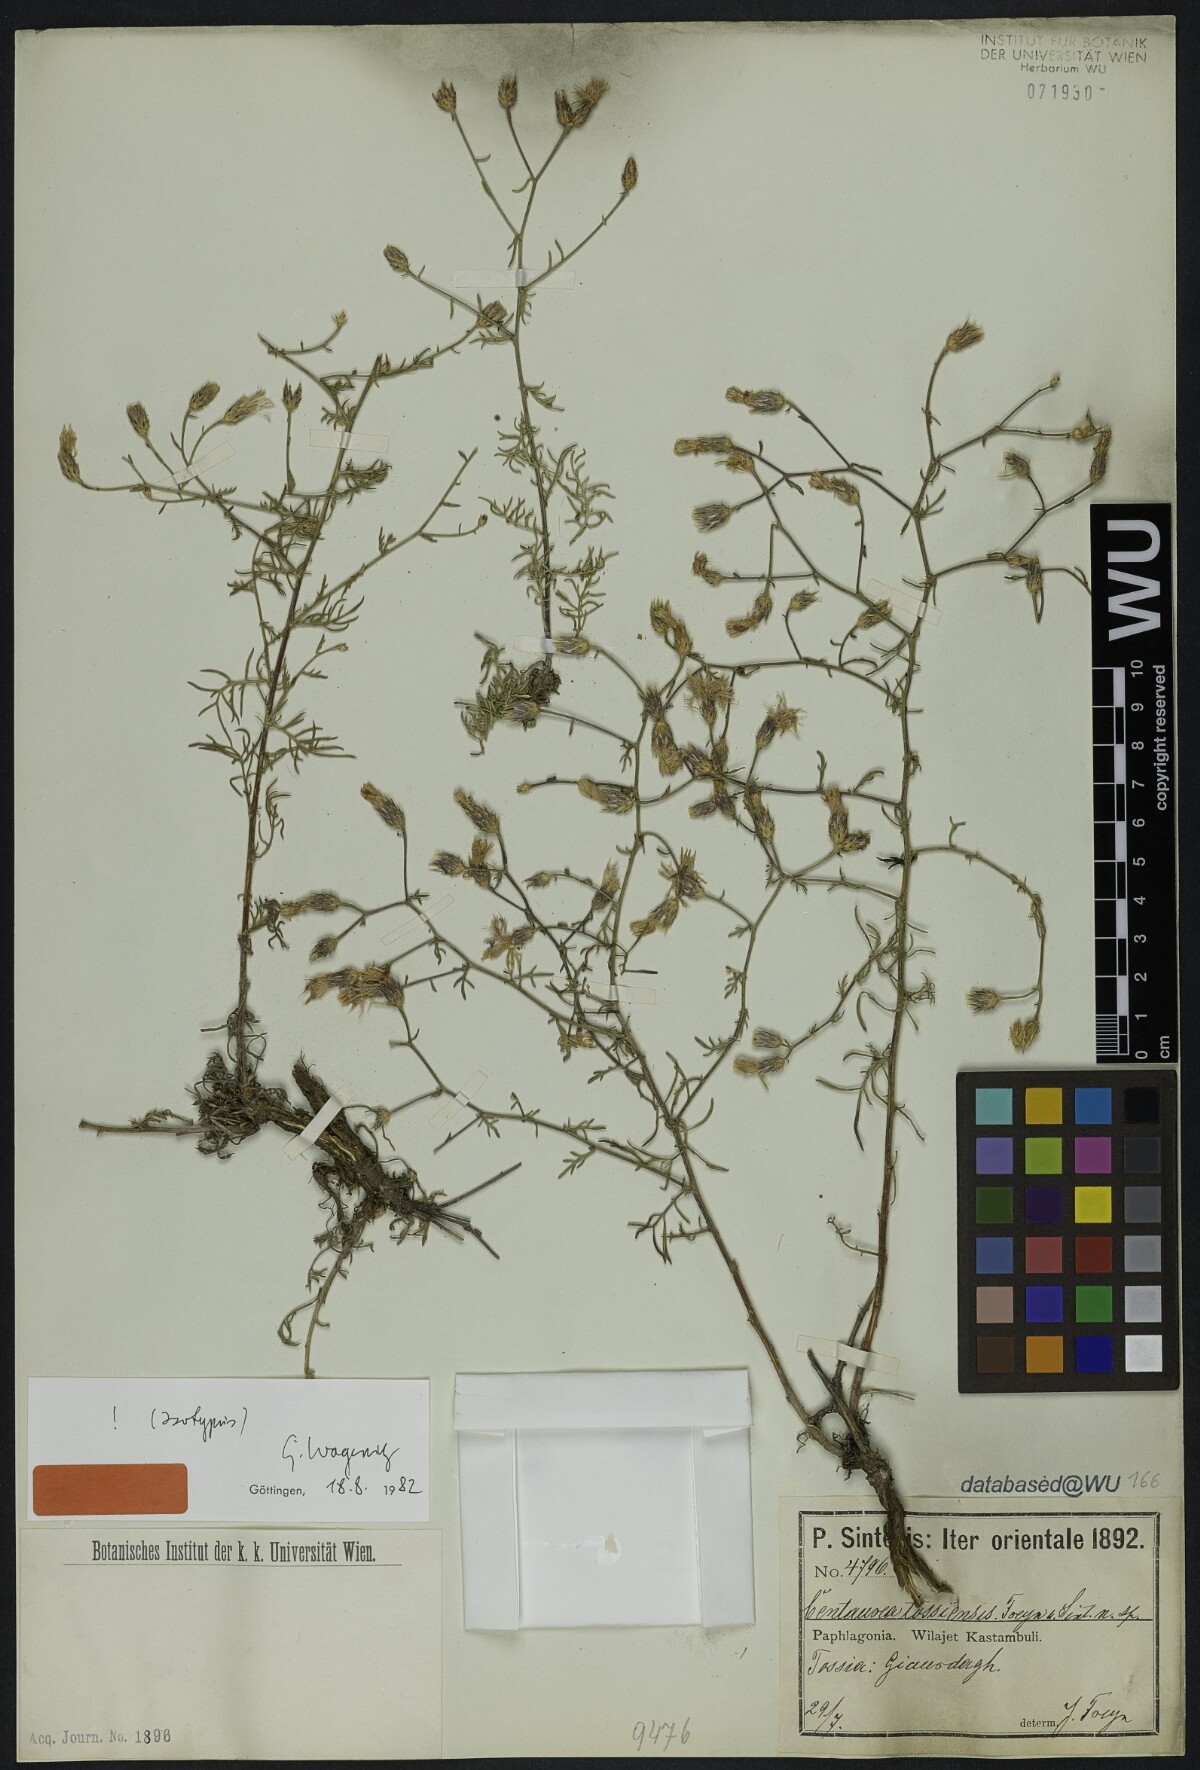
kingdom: Plantae
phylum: Tracheophyta
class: Magnoliopsida
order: Asterales
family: Asteraceae
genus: Centaurea
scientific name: Centaurea tossiensis
